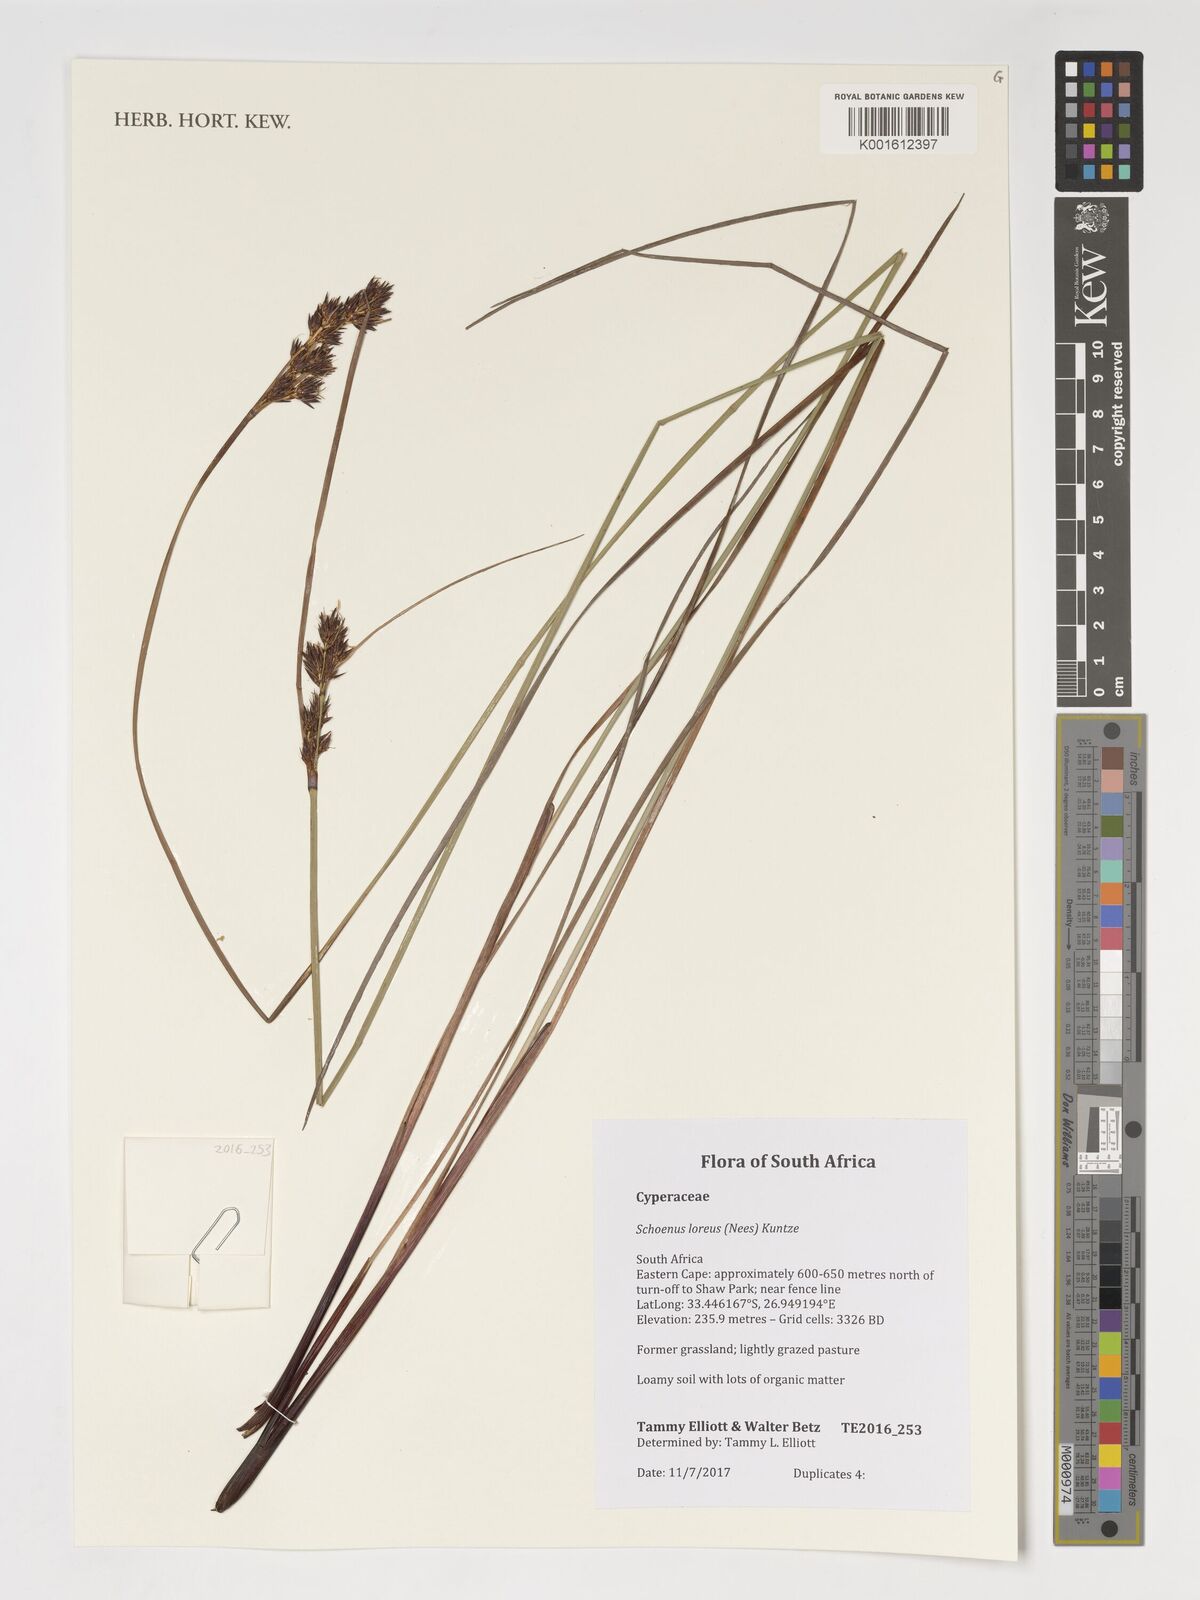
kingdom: Plantae
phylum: Tracheophyta
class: Liliopsida
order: Poales
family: Cyperaceae
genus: Schoenus
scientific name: Schoenus loreus
